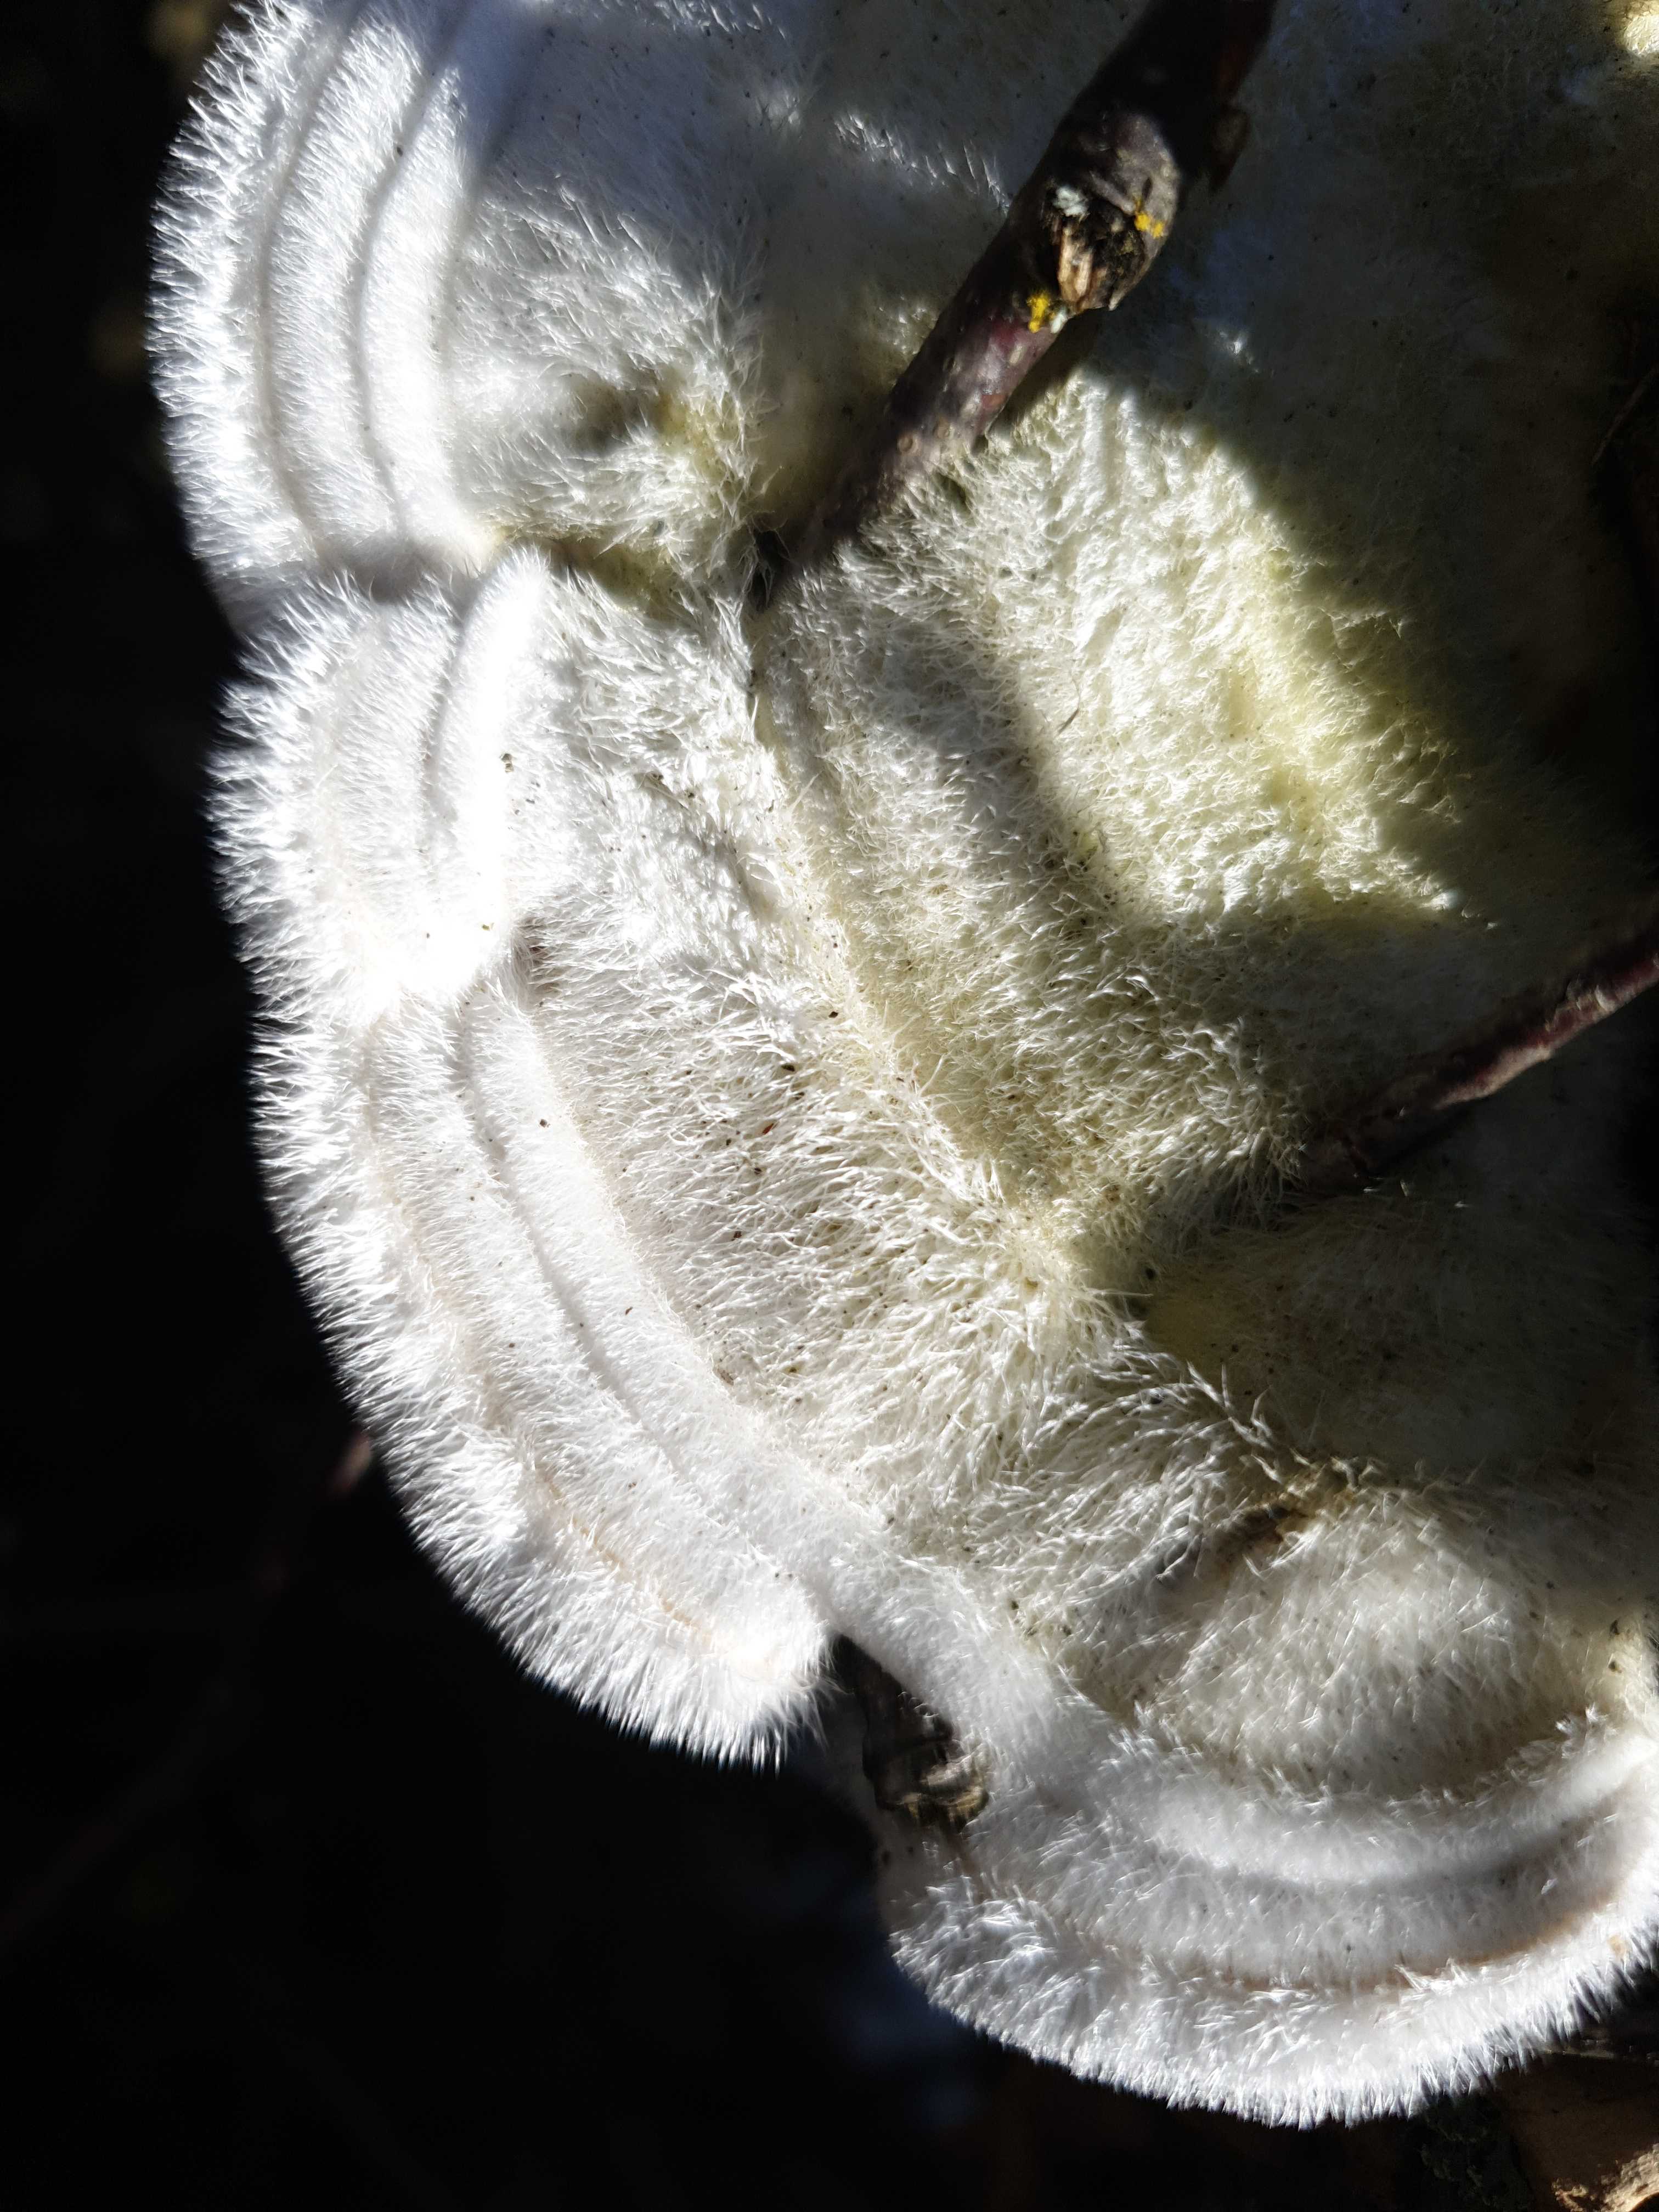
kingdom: Fungi
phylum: Basidiomycota
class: Agaricomycetes
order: Polyporales
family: Polyporaceae
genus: Trametes
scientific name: Trametes hirsuta
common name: håret læderporesvamp
